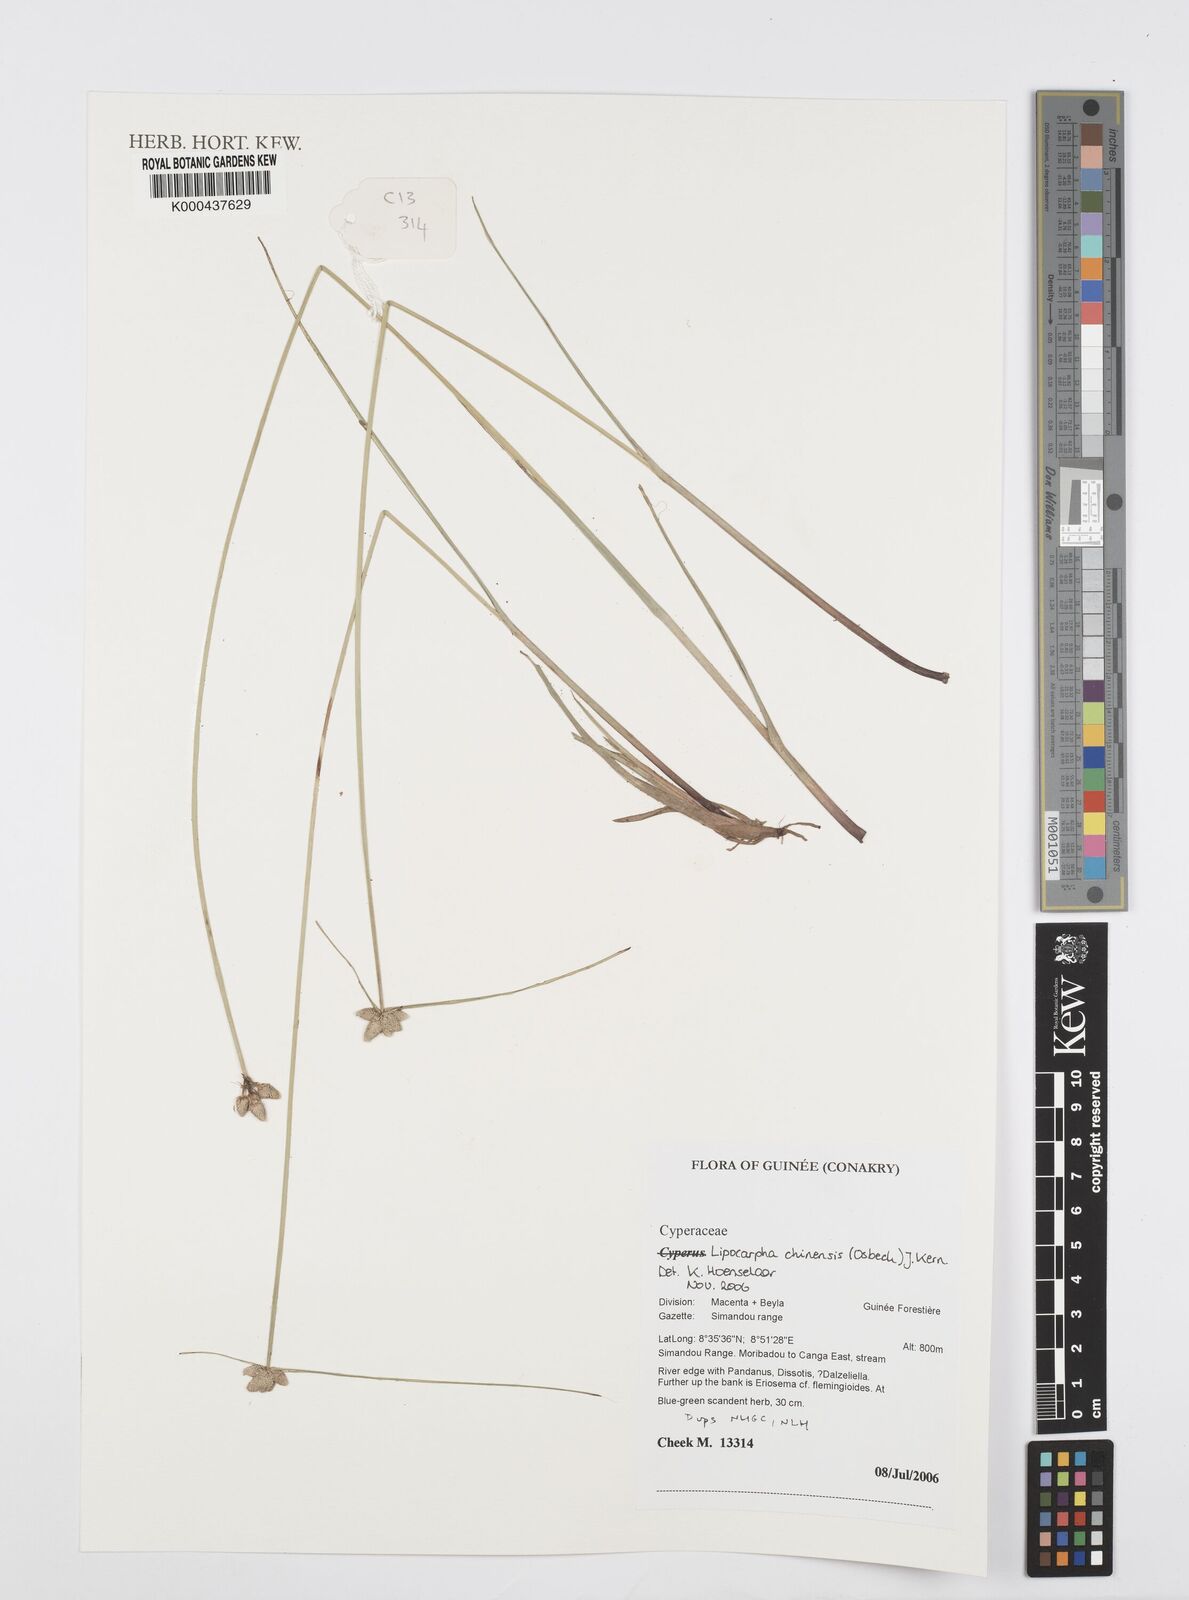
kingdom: Plantae
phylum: Tracheophyta
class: Liliopsida
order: Poales
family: Cyperaceae
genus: Cyperus
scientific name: Cyperus albescens
